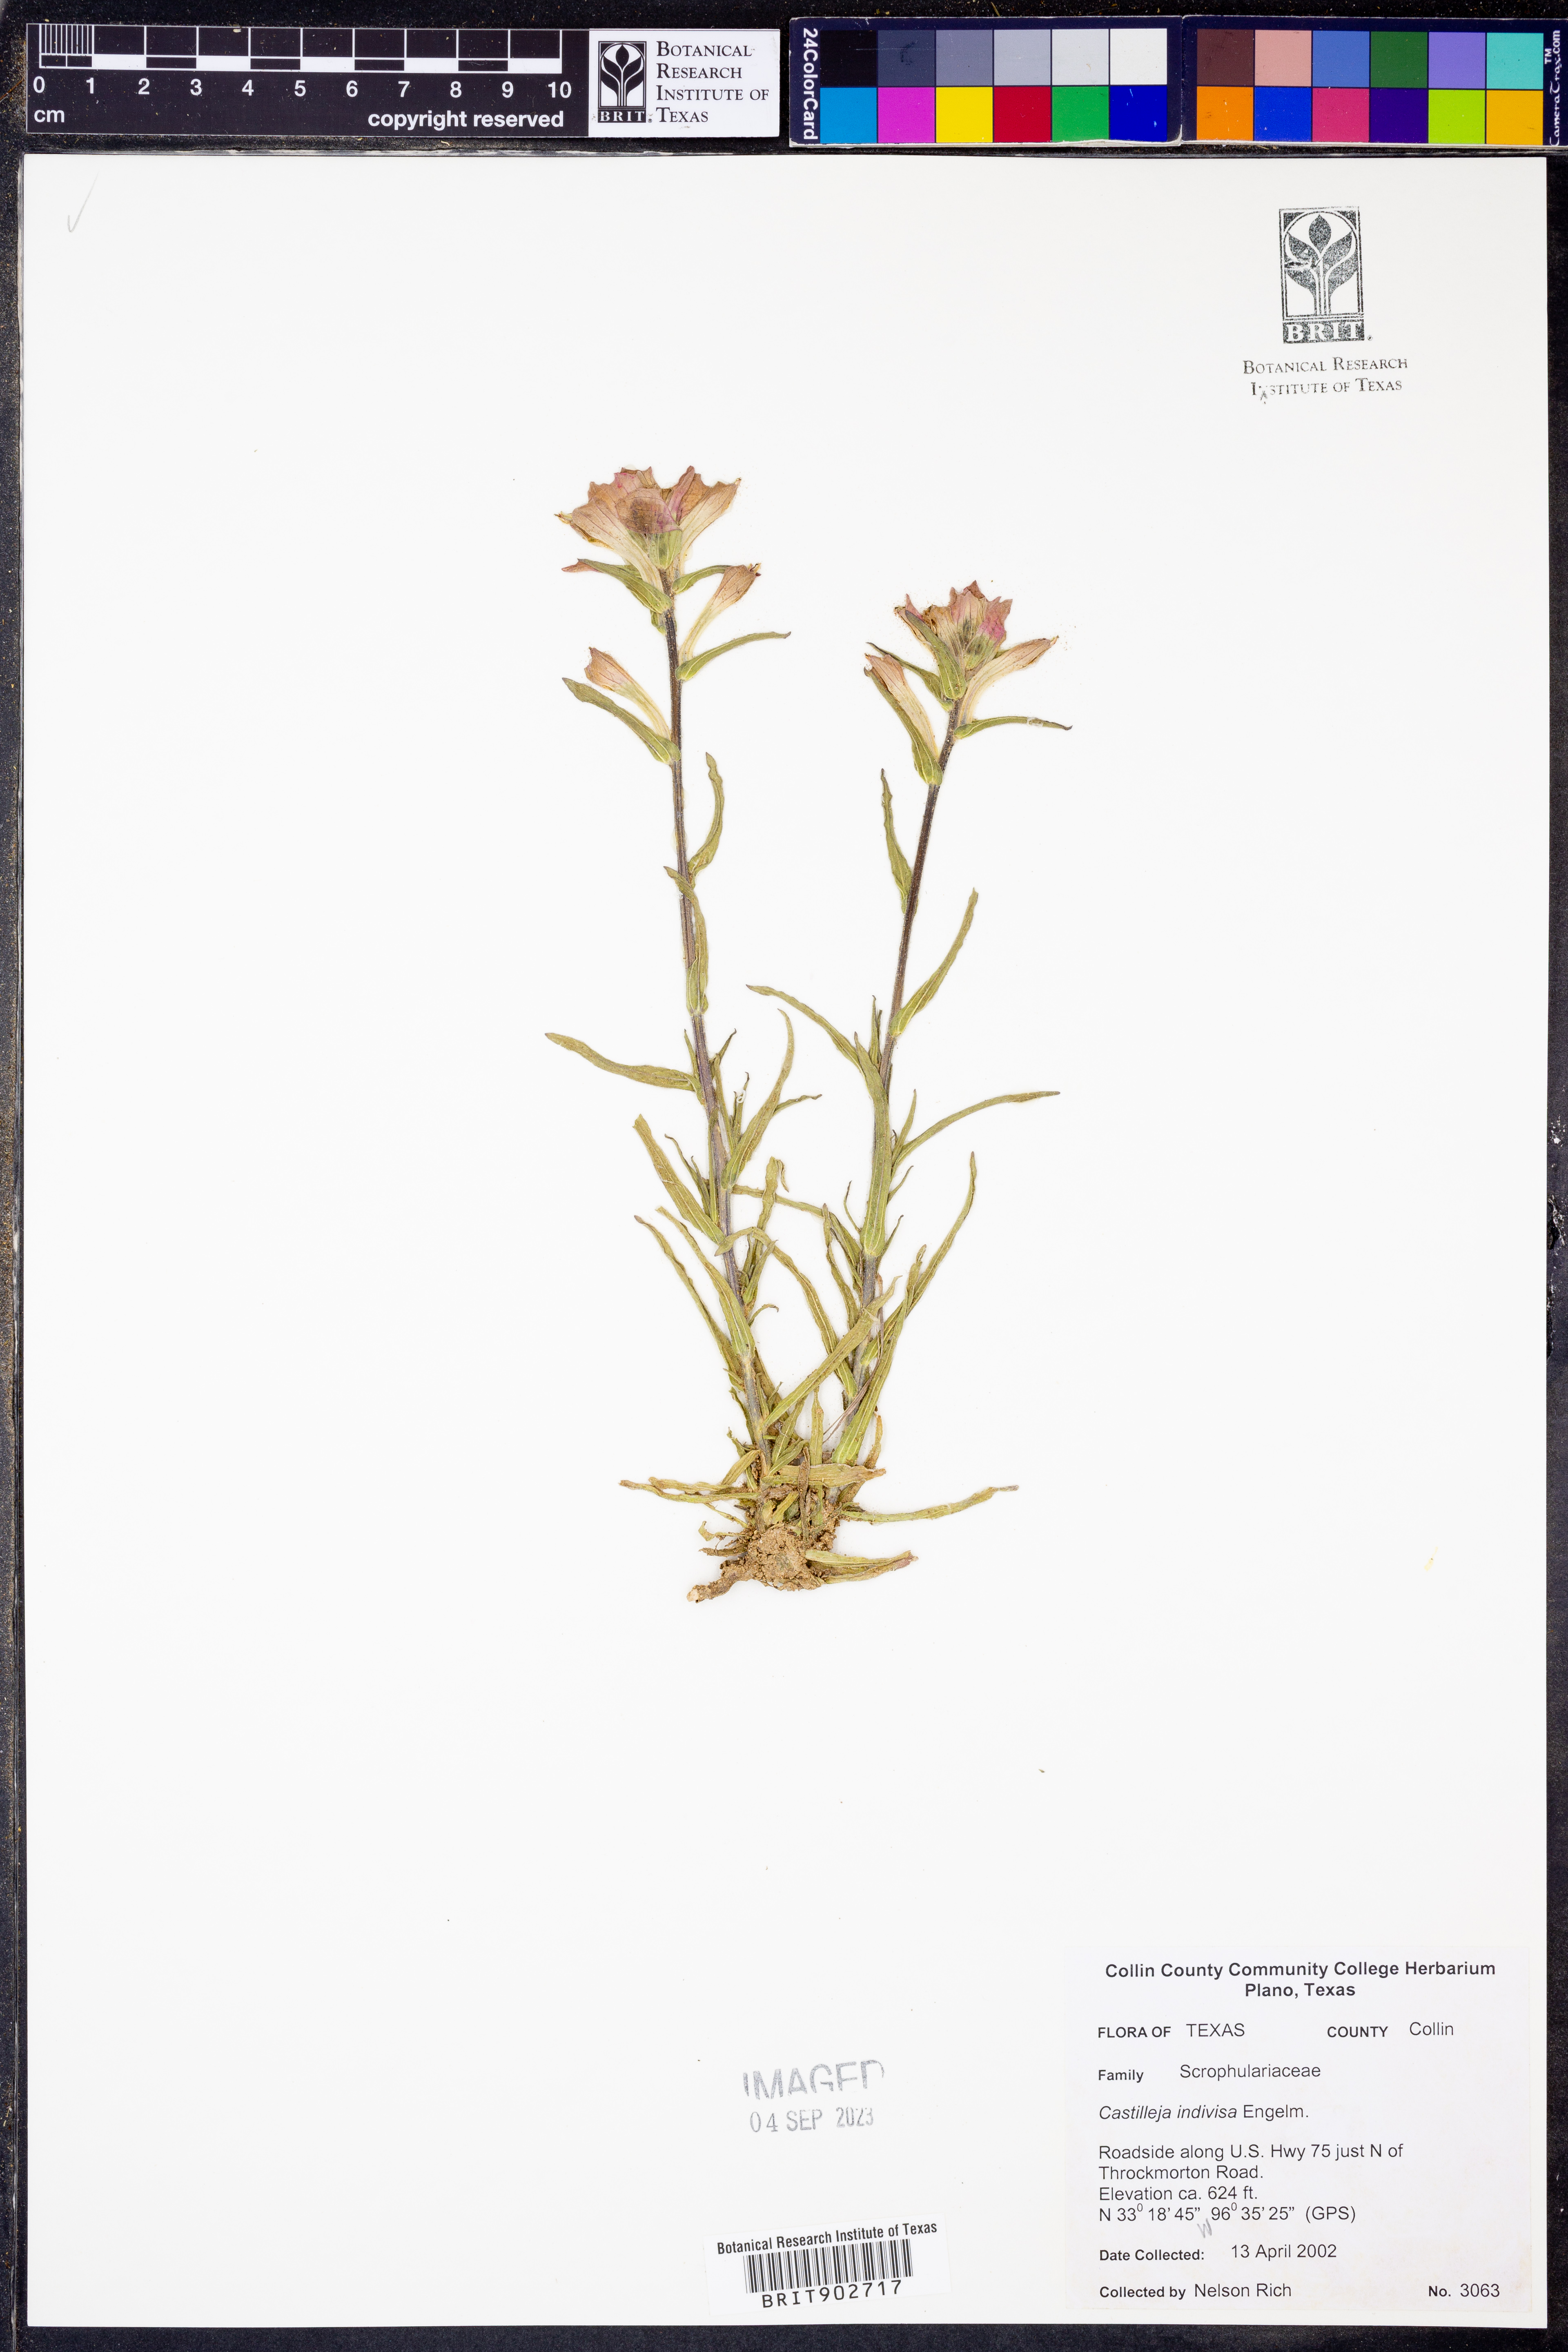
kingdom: Plantae
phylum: Tracheophyta
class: Magnoliopsida
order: Lamiales
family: Orobanchaceae
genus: Castilleja
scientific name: Castilleja indivisa
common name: Texas paintbrush
